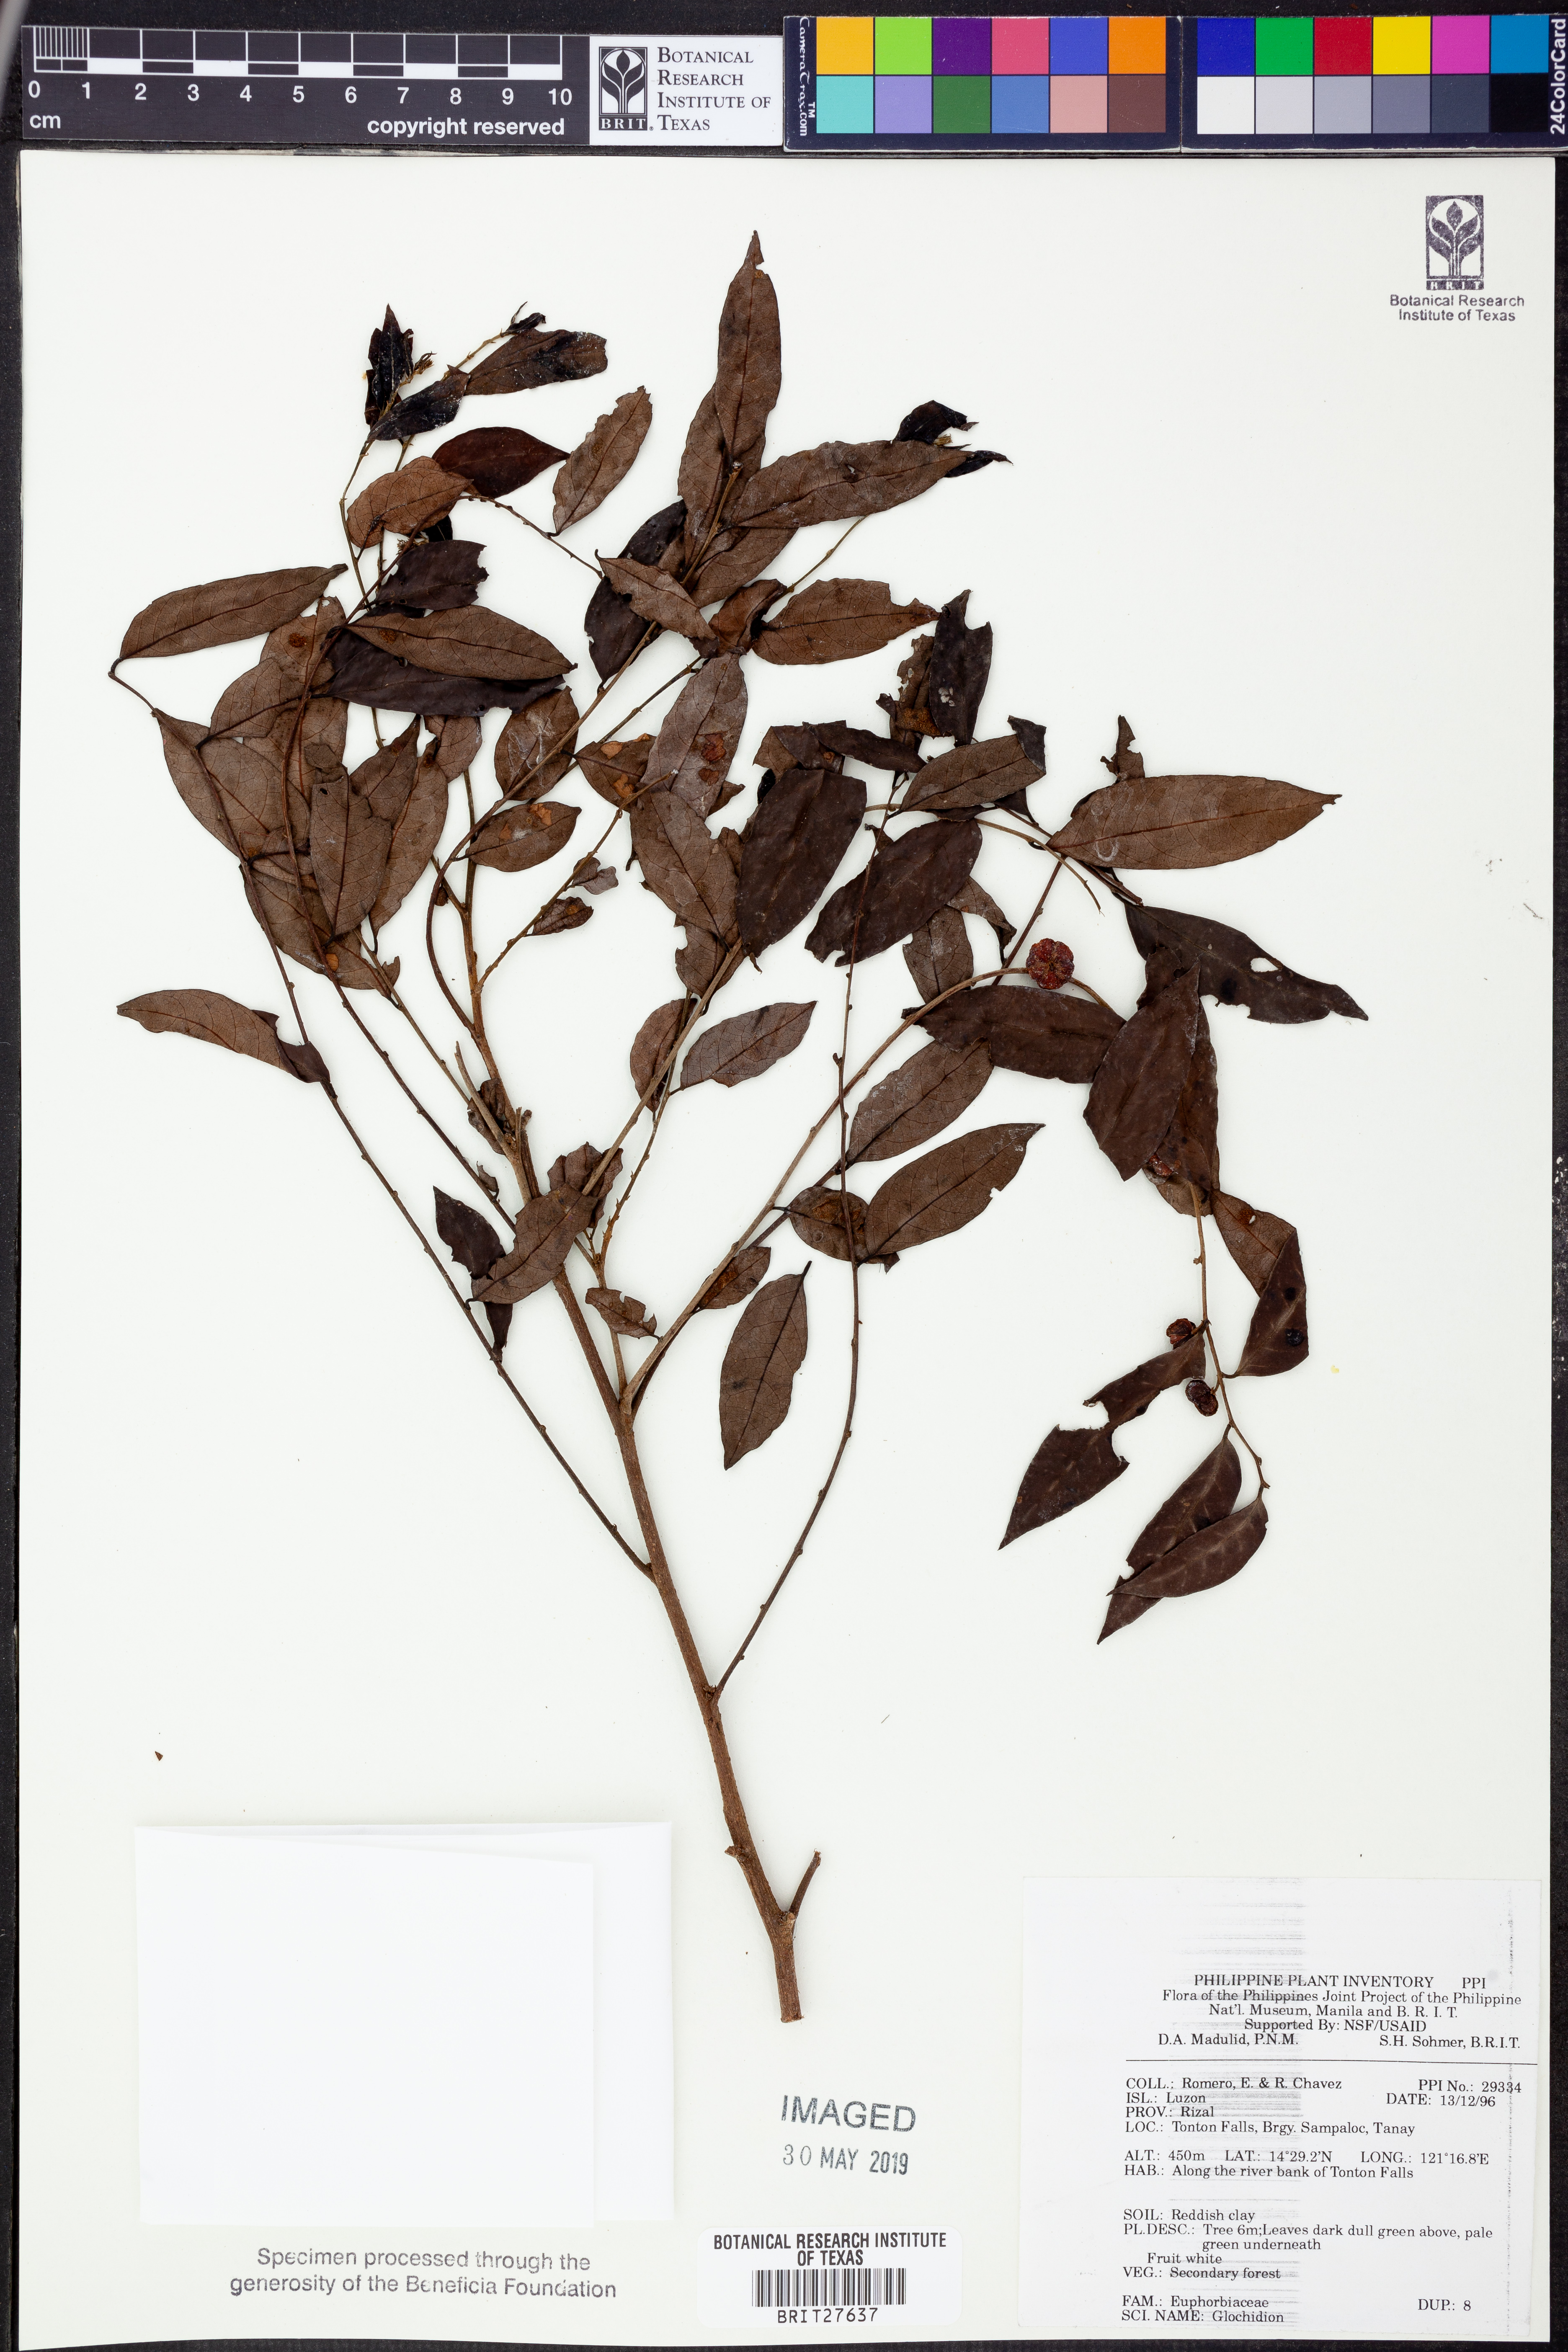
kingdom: Plantae
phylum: Tracheophyta
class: Magnoliopsida
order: Malpighiales
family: Phyllanthaceae
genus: Glochidion
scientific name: Glochidion
